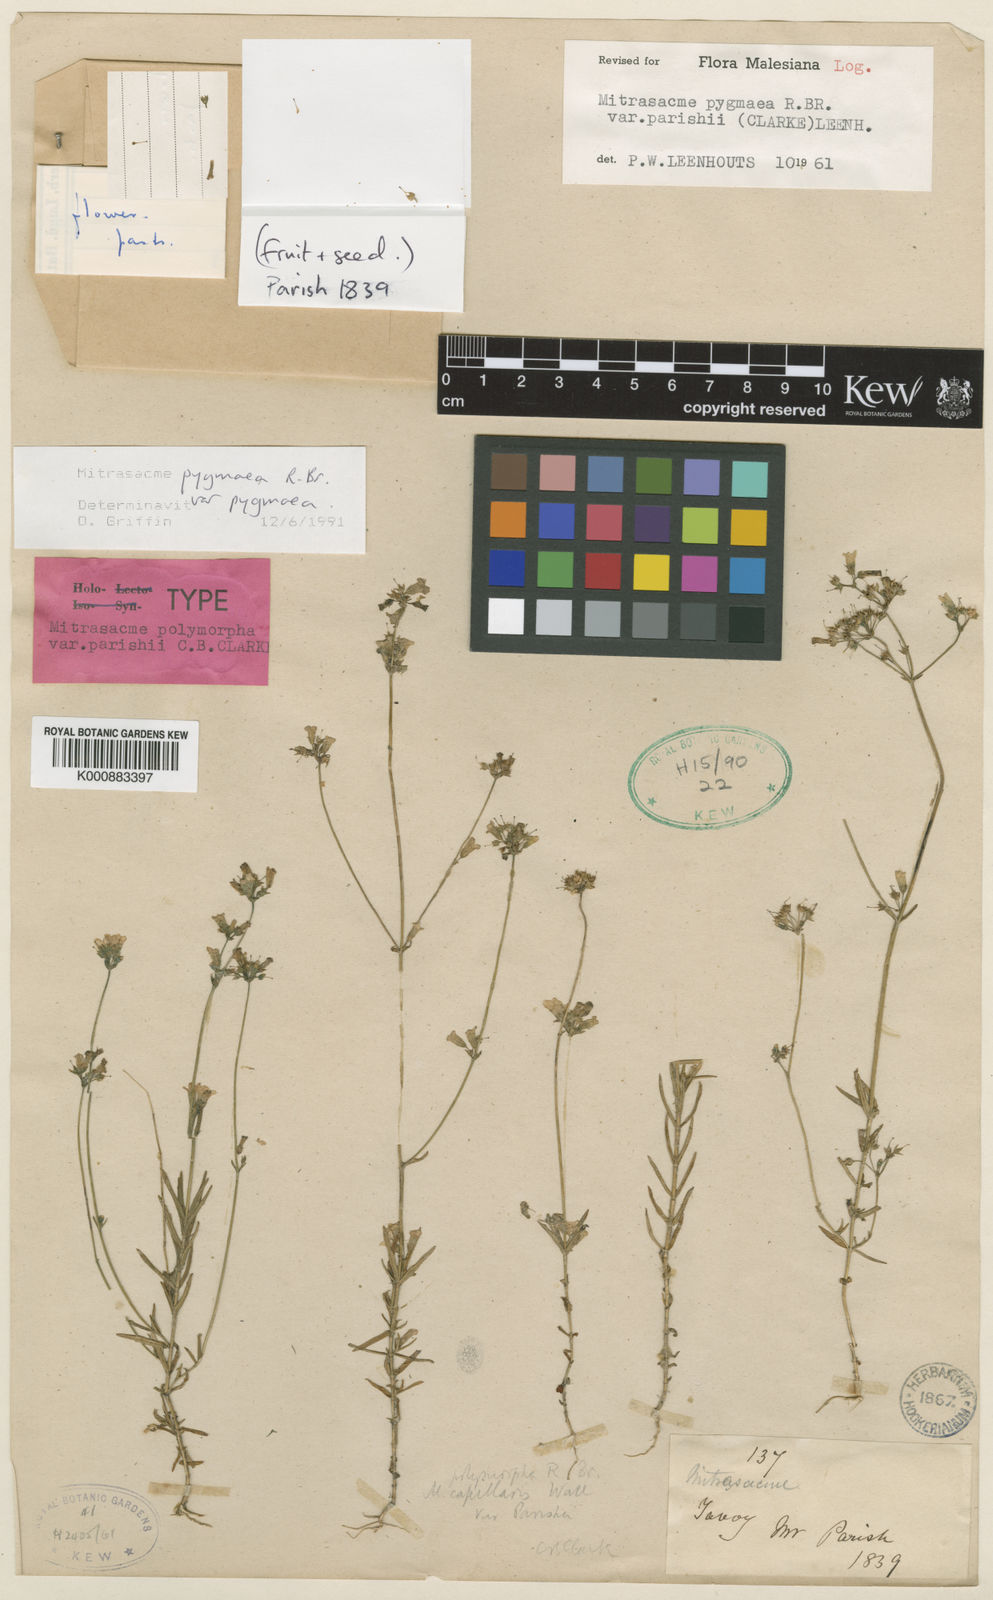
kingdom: Plantae
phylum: Tracheophyta
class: Magnoliopsida
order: Gentianales
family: Loganiaceae
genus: Mitrasacme
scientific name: Mitrasacme pygmaea
